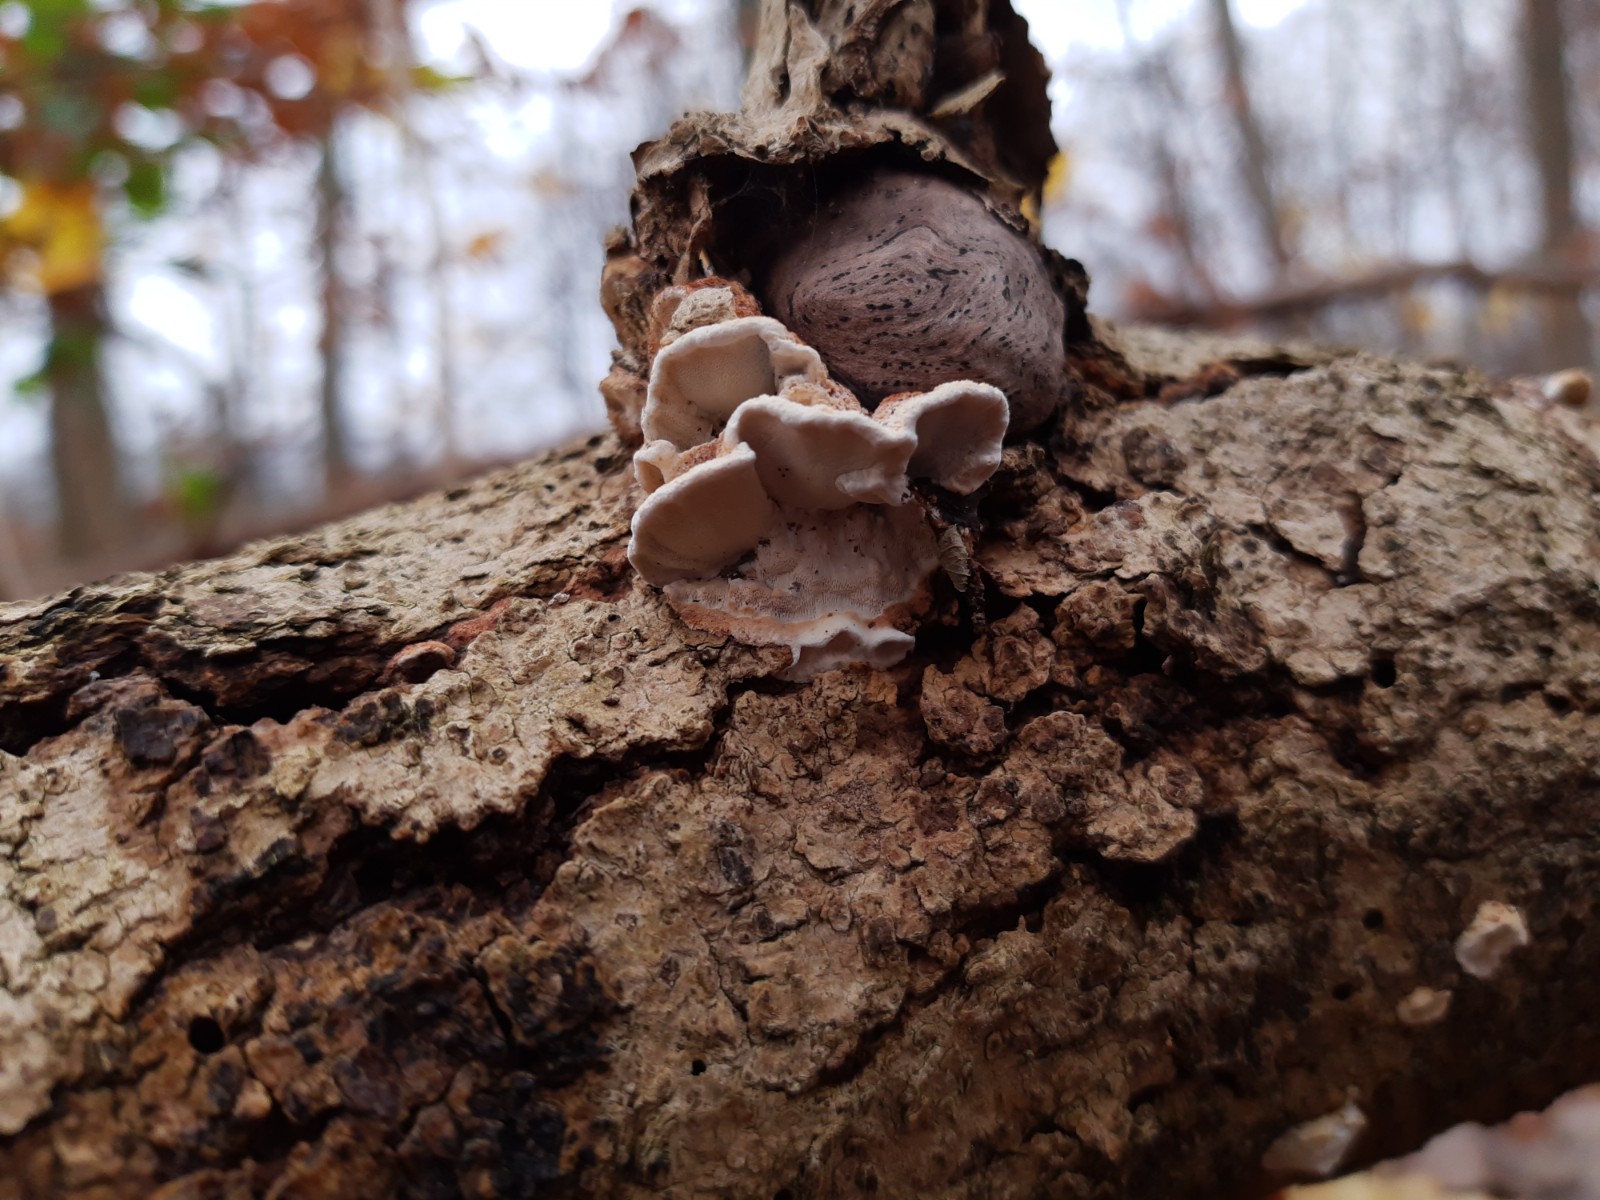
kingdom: Fungi
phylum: Basidiomycota
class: Agaricomycetes
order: Polyporales
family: Incrustoporiaceae
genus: Skeletocutis
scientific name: Skeletocutis nemoralis
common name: stor krystalporesvamp
